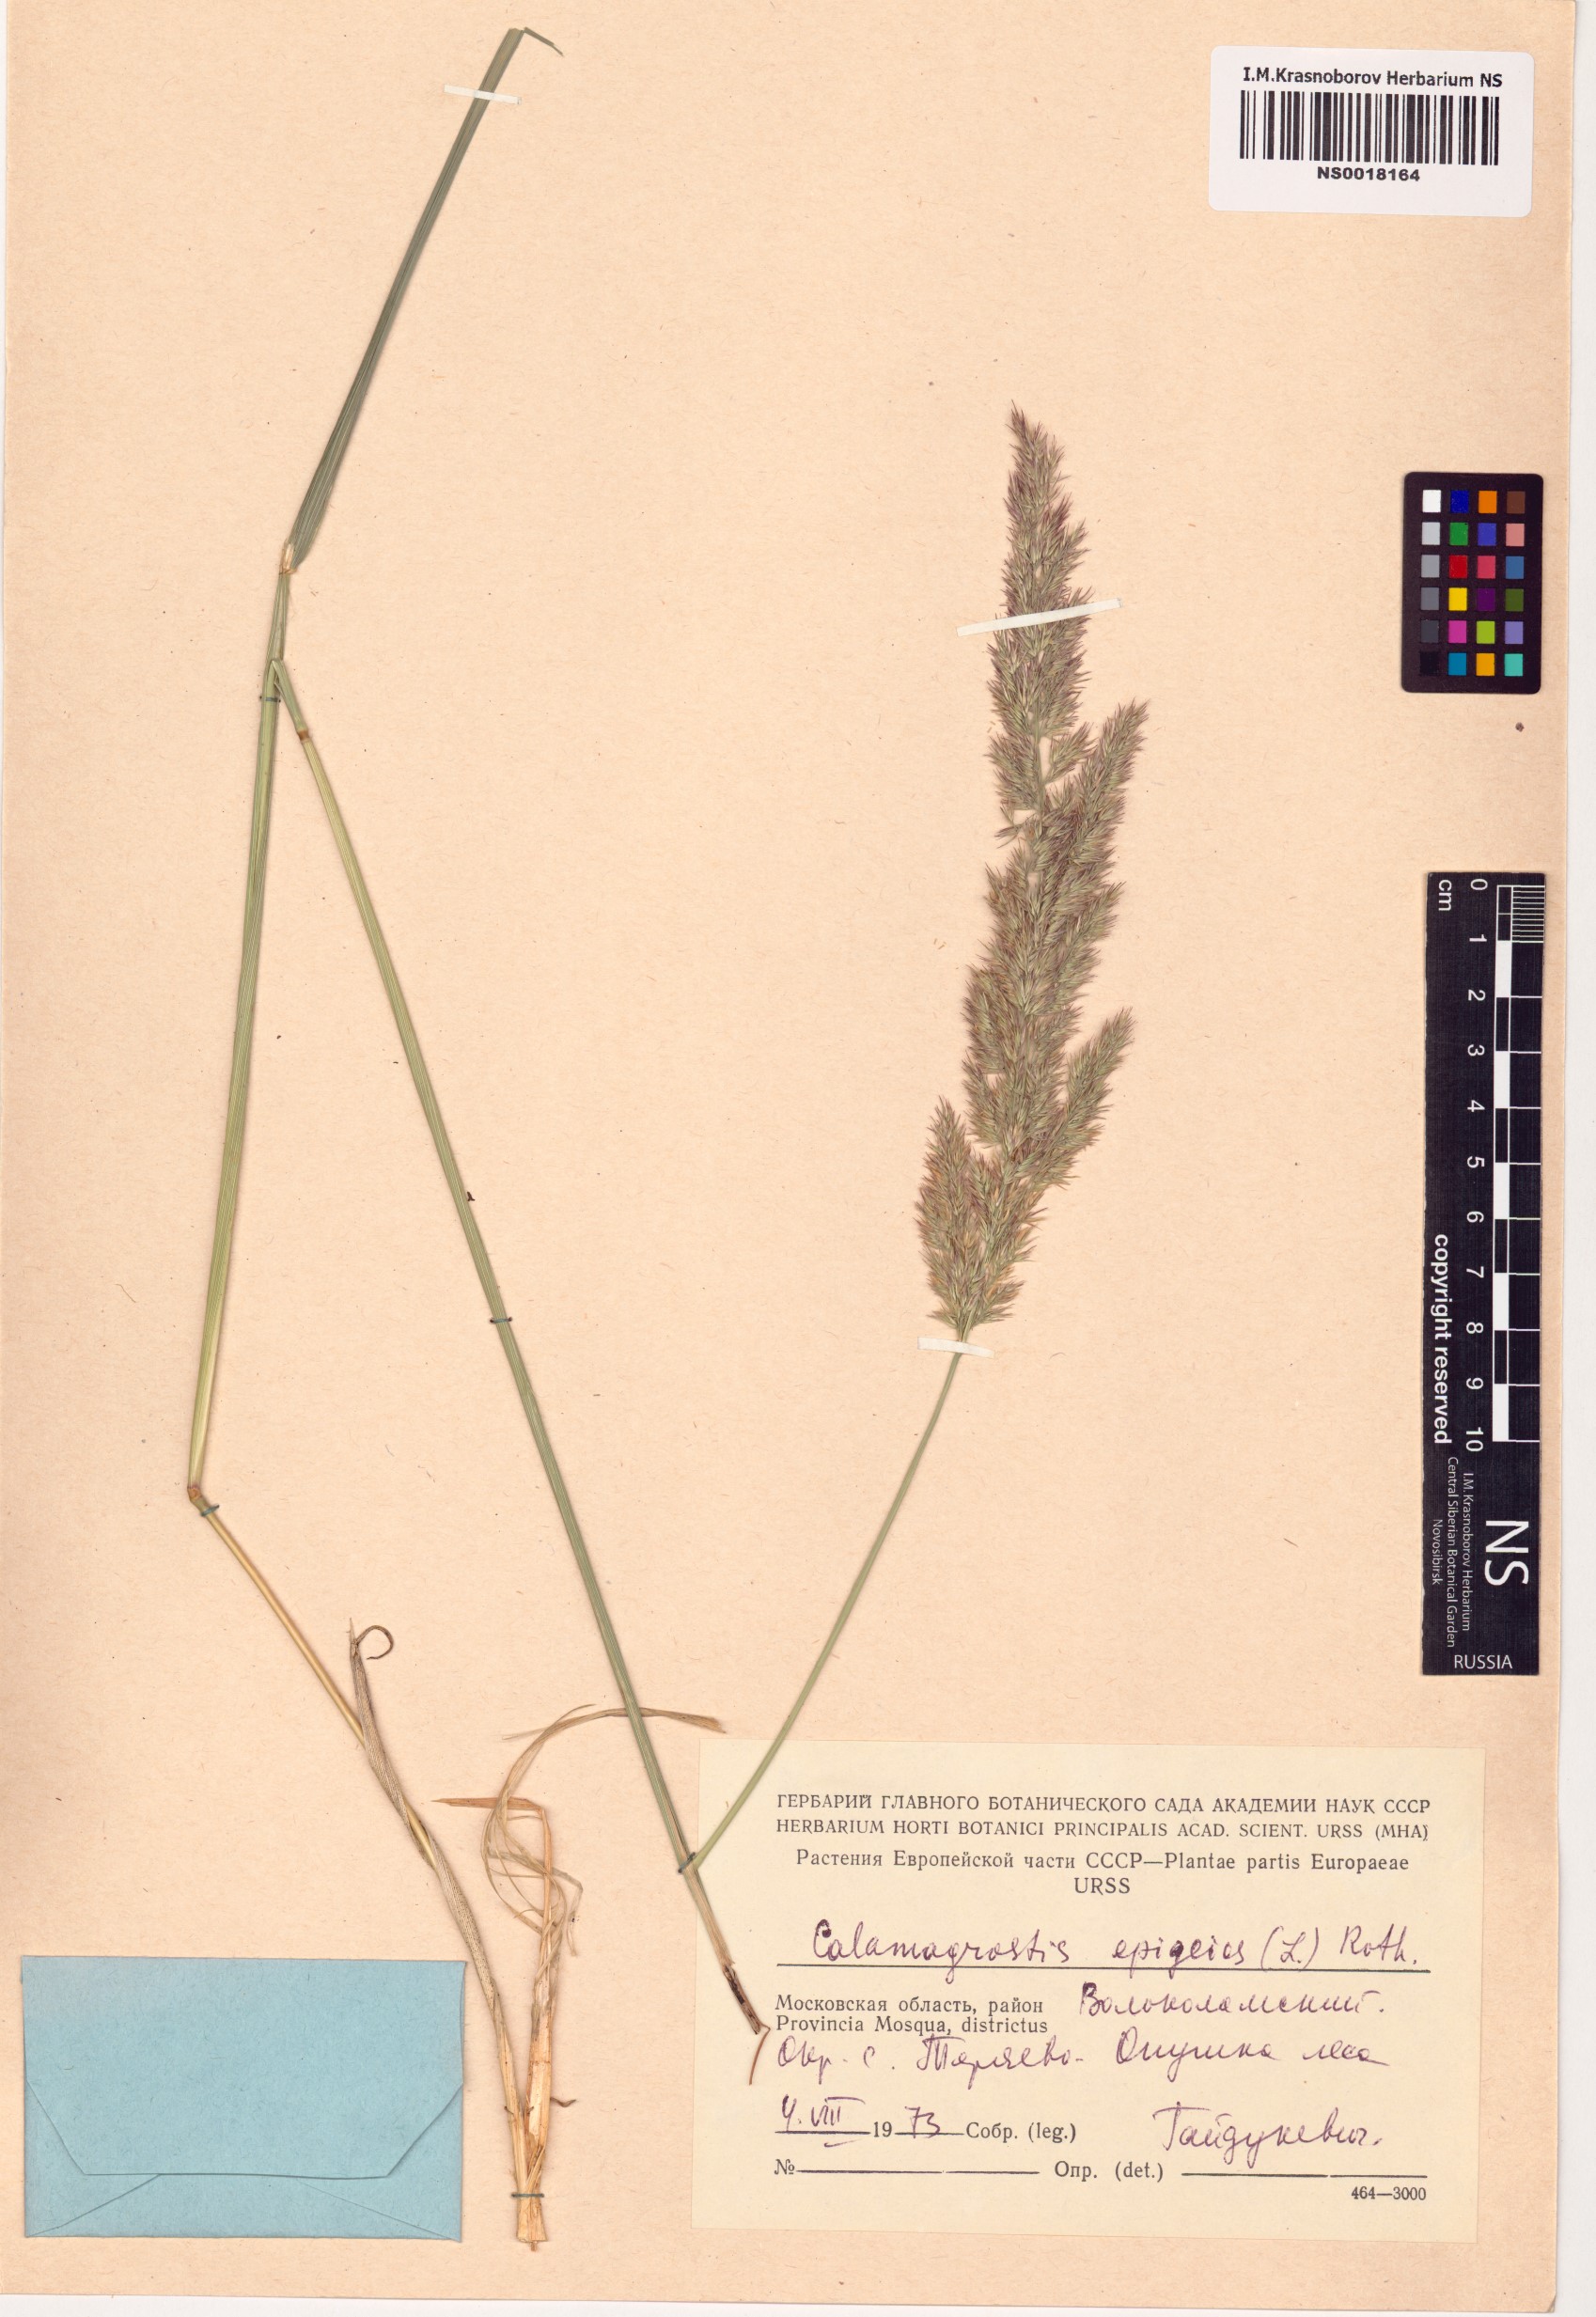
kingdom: Plantae
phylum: Tracheophyta
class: Liliopsida
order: Poales
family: Poaceae
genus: Calamagrostis
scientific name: Calamagrostis epigejos
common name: Wood small-reed
